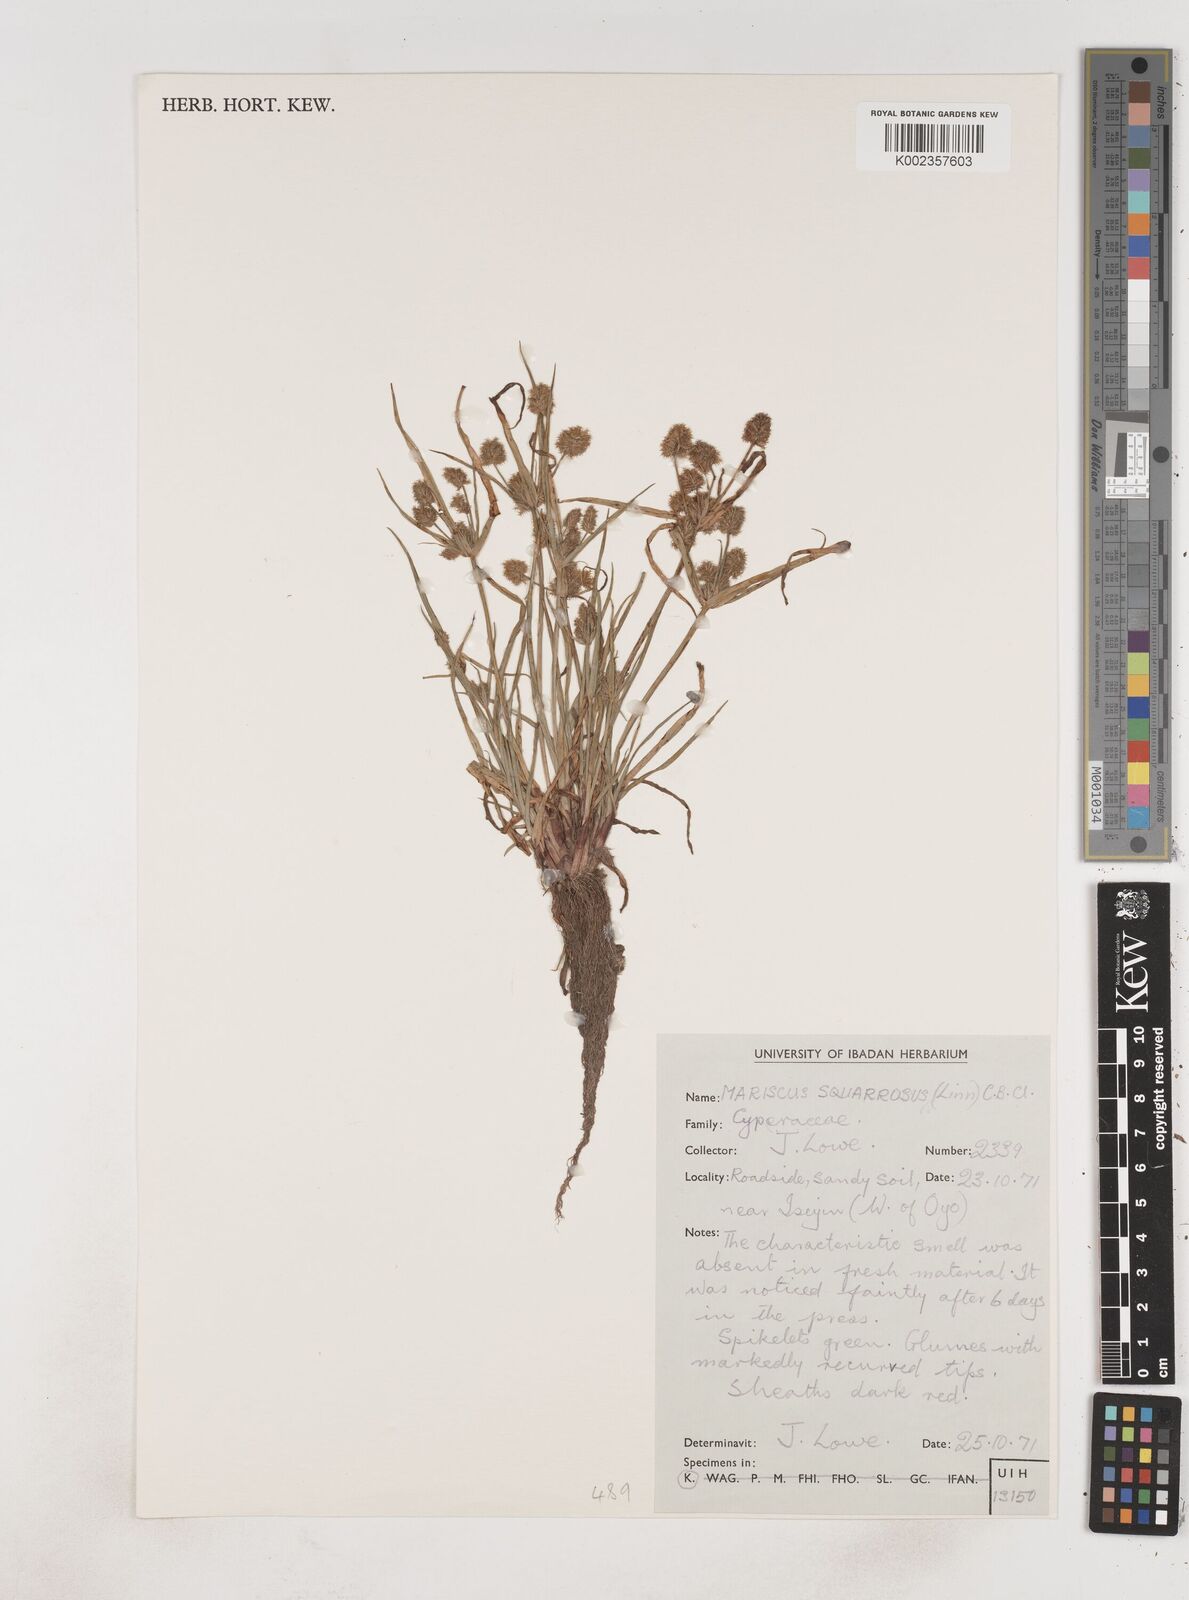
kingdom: Plantae
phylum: Tracheophyta
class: Liliopsida
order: Poales
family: Cyperaceae
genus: Cyperus
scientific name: Cyperus squarrosus
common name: Awned cyperus
